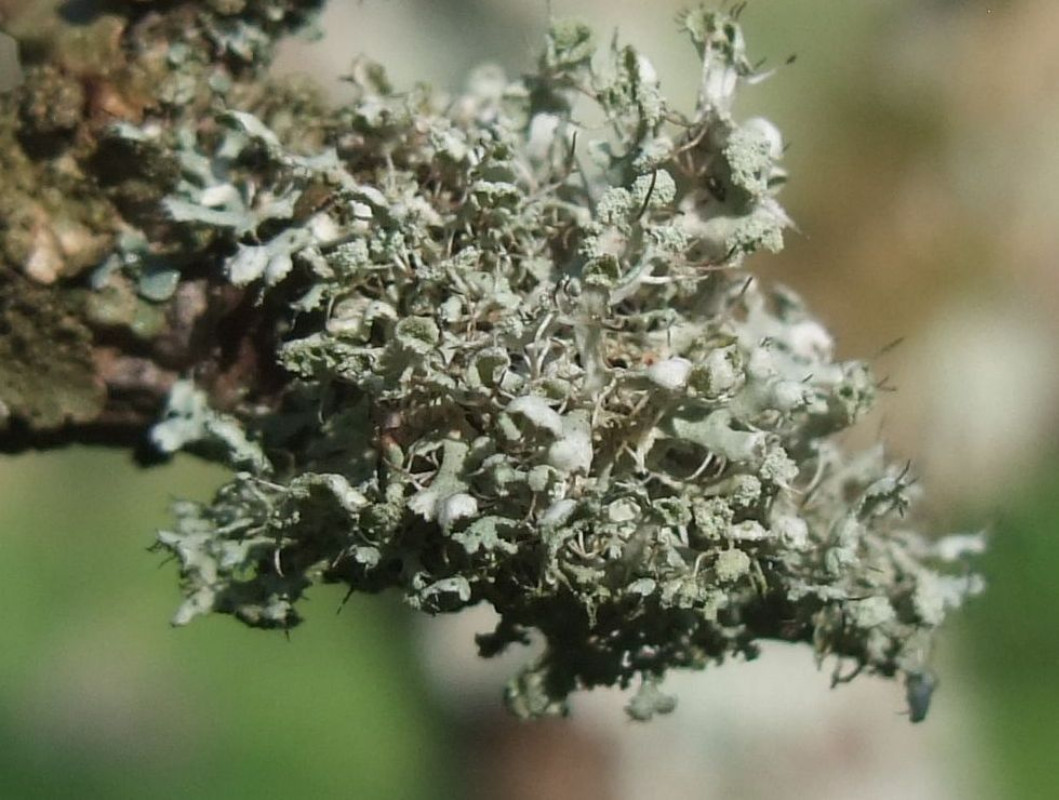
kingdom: Fungi
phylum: Ascomycota
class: Lecanoromycetes
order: Caliciales
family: Physciaceae
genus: Physcia
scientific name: Physcia adscendens
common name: hætte-rosetlav
